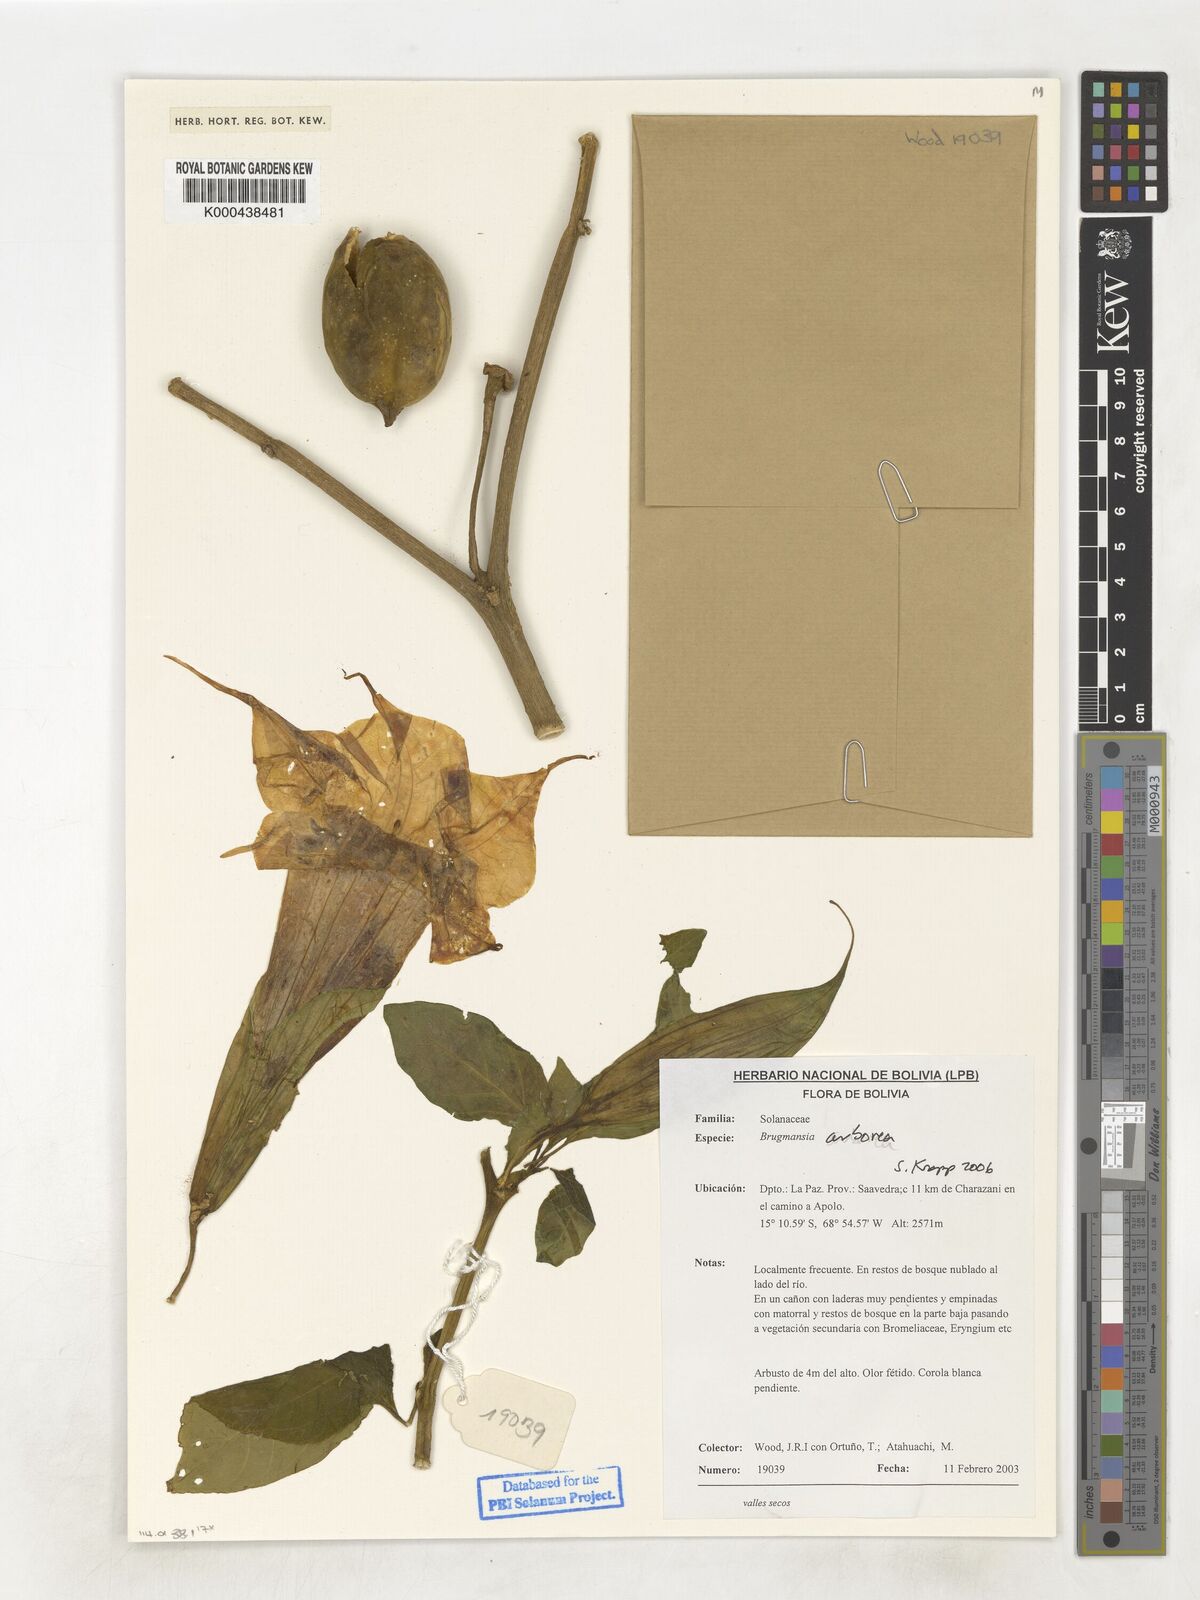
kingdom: Plantae
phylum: Tracheophyta
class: Magnoliopsida
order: Solanales
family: Solanaceae
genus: Brugmansia
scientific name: Brugmansia arborea
